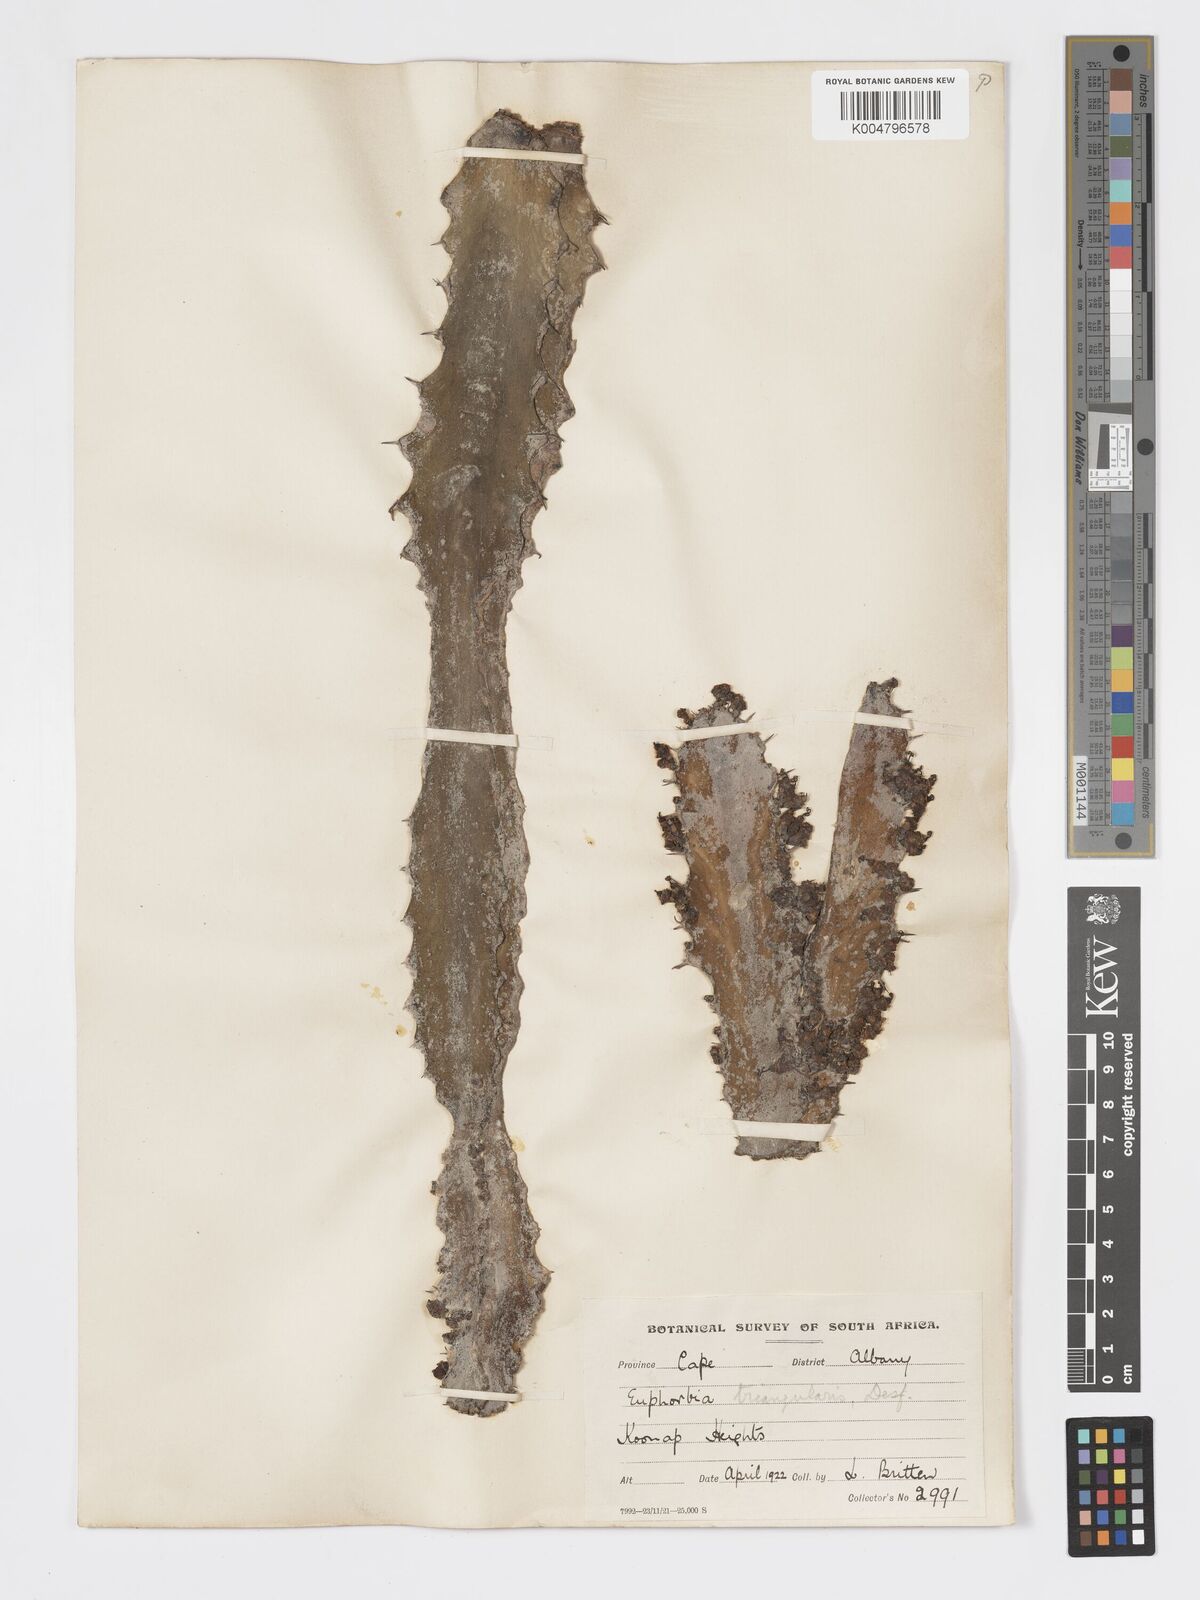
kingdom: Plantae
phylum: Tracheophyta
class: Magnoliopsida
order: Malpighiales
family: Euphorbiaceae
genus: Euphorbia
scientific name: Euphorbia triangularis
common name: Chandelier tree
